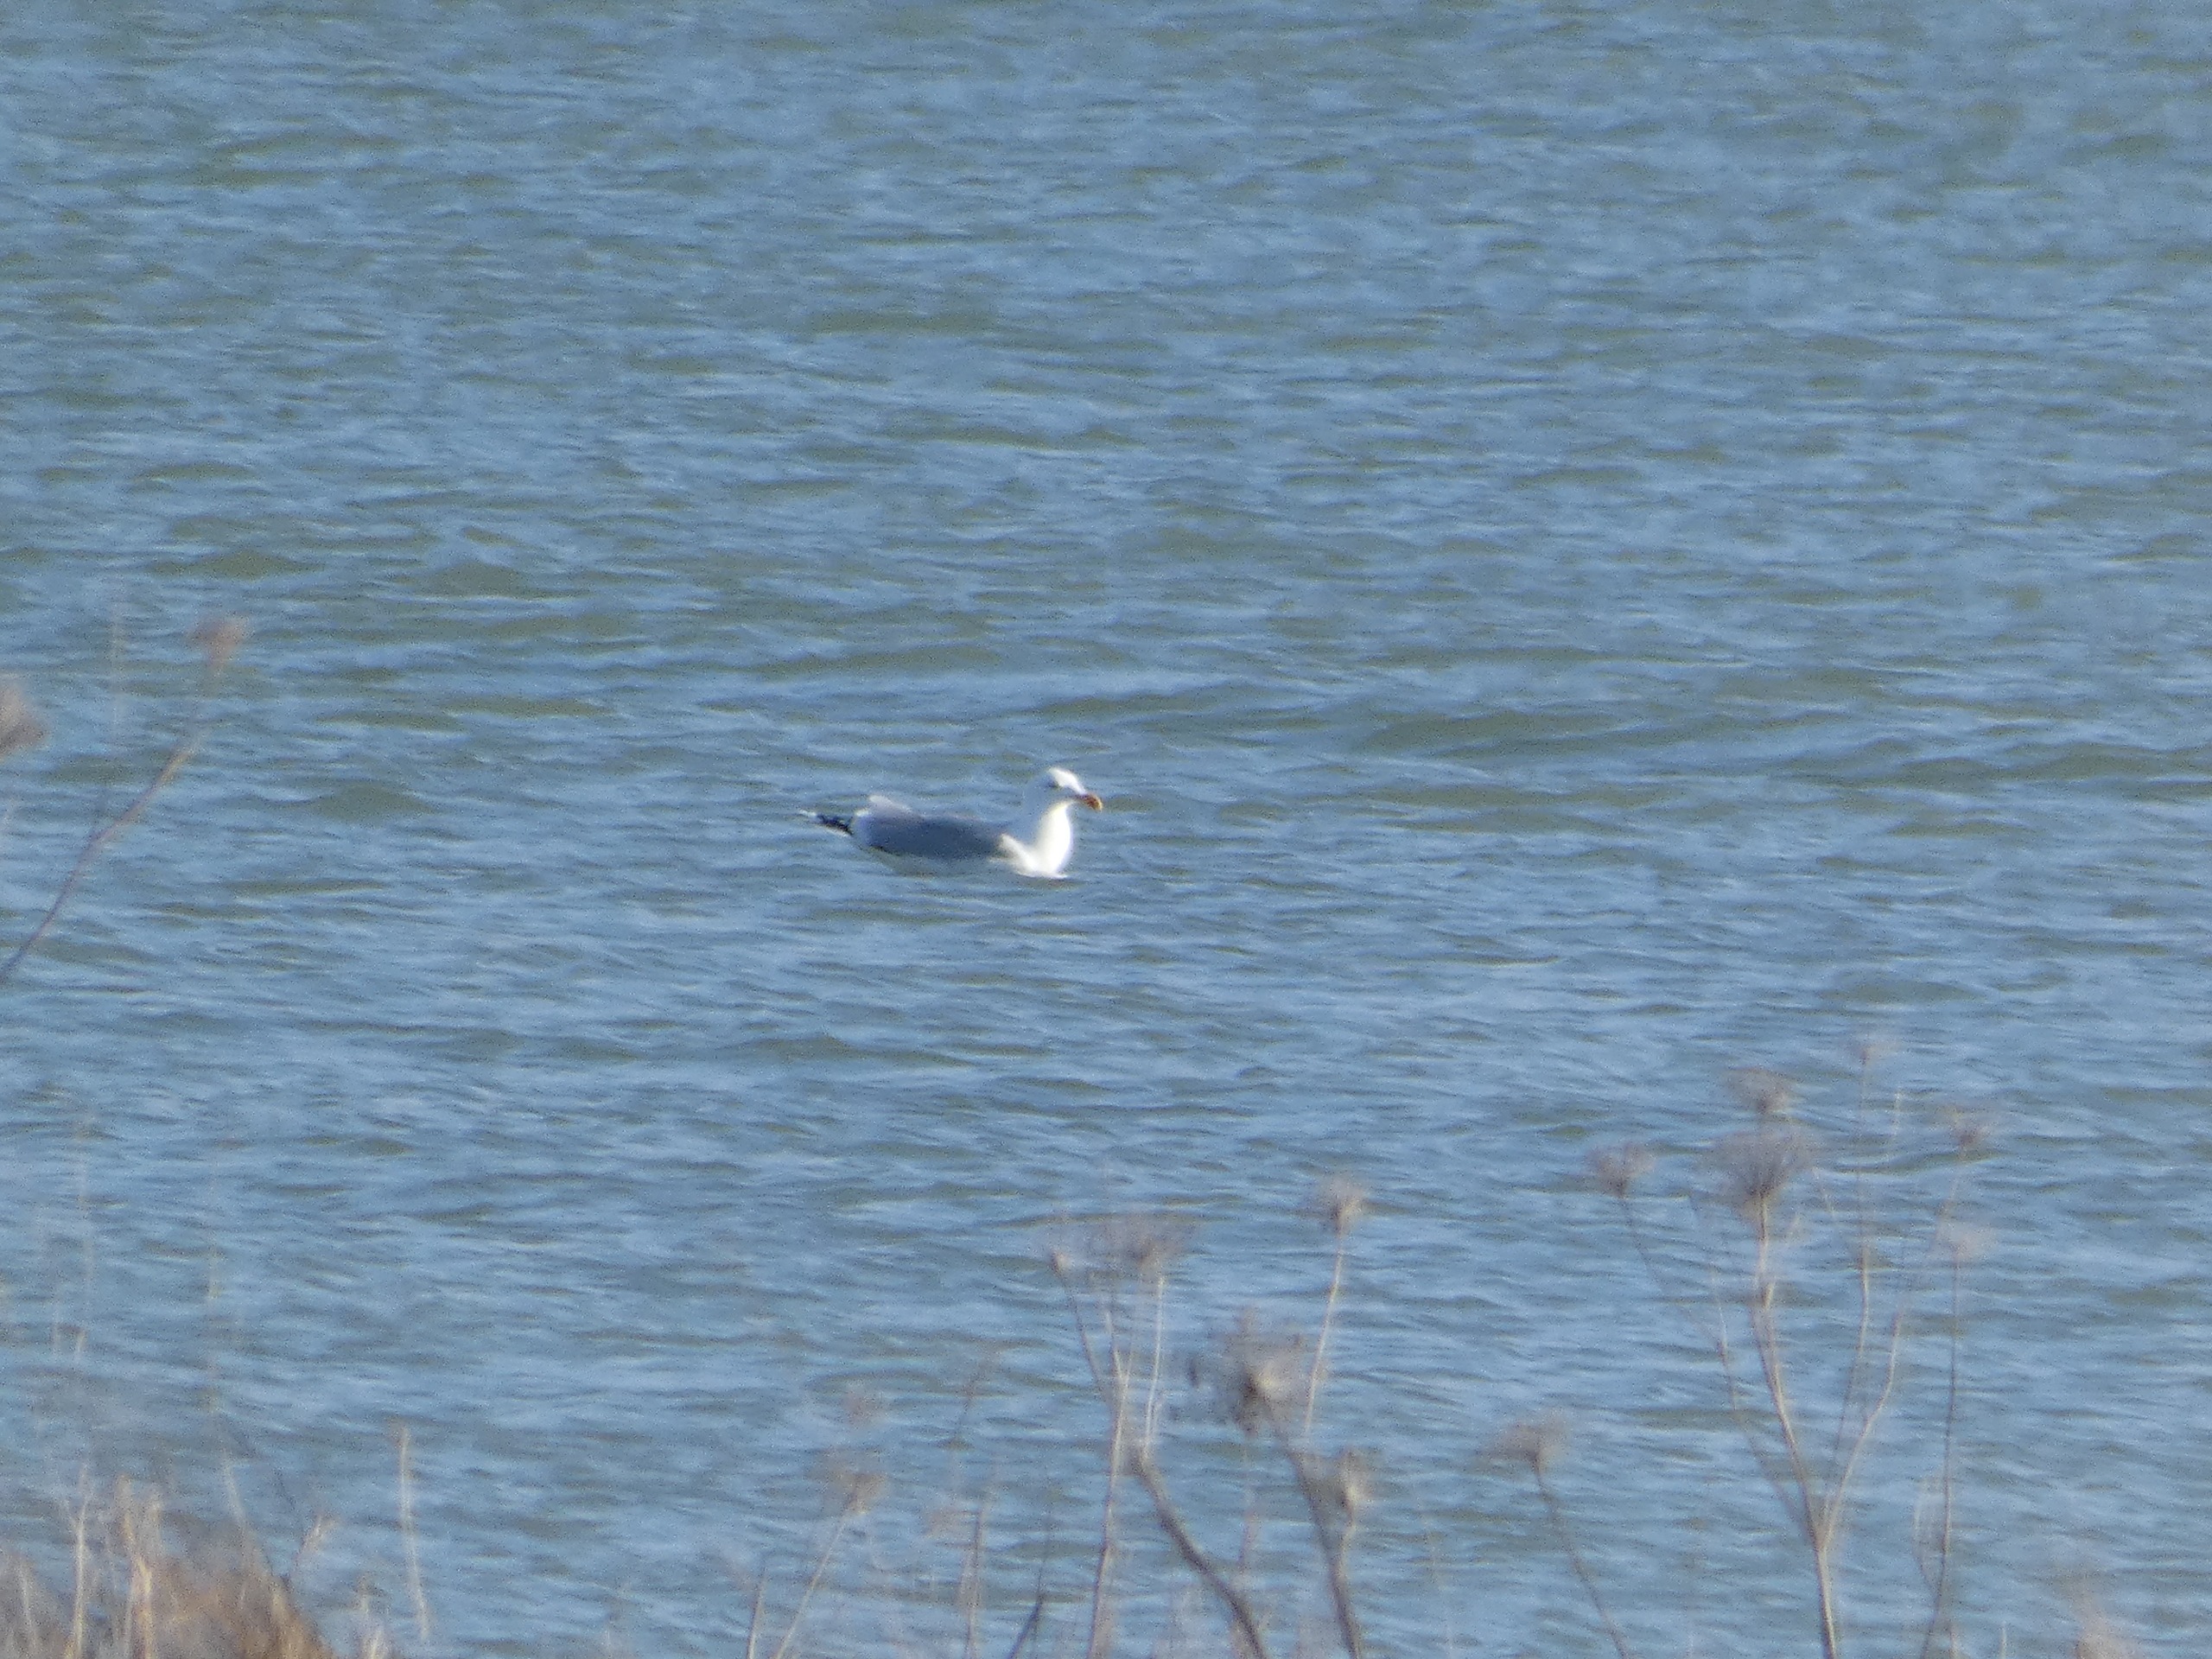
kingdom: Animalia
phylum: Chordata
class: Aves
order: Charadriiformes
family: Laridae
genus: Larus
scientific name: Larus argentatus
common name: Sølvmåge
